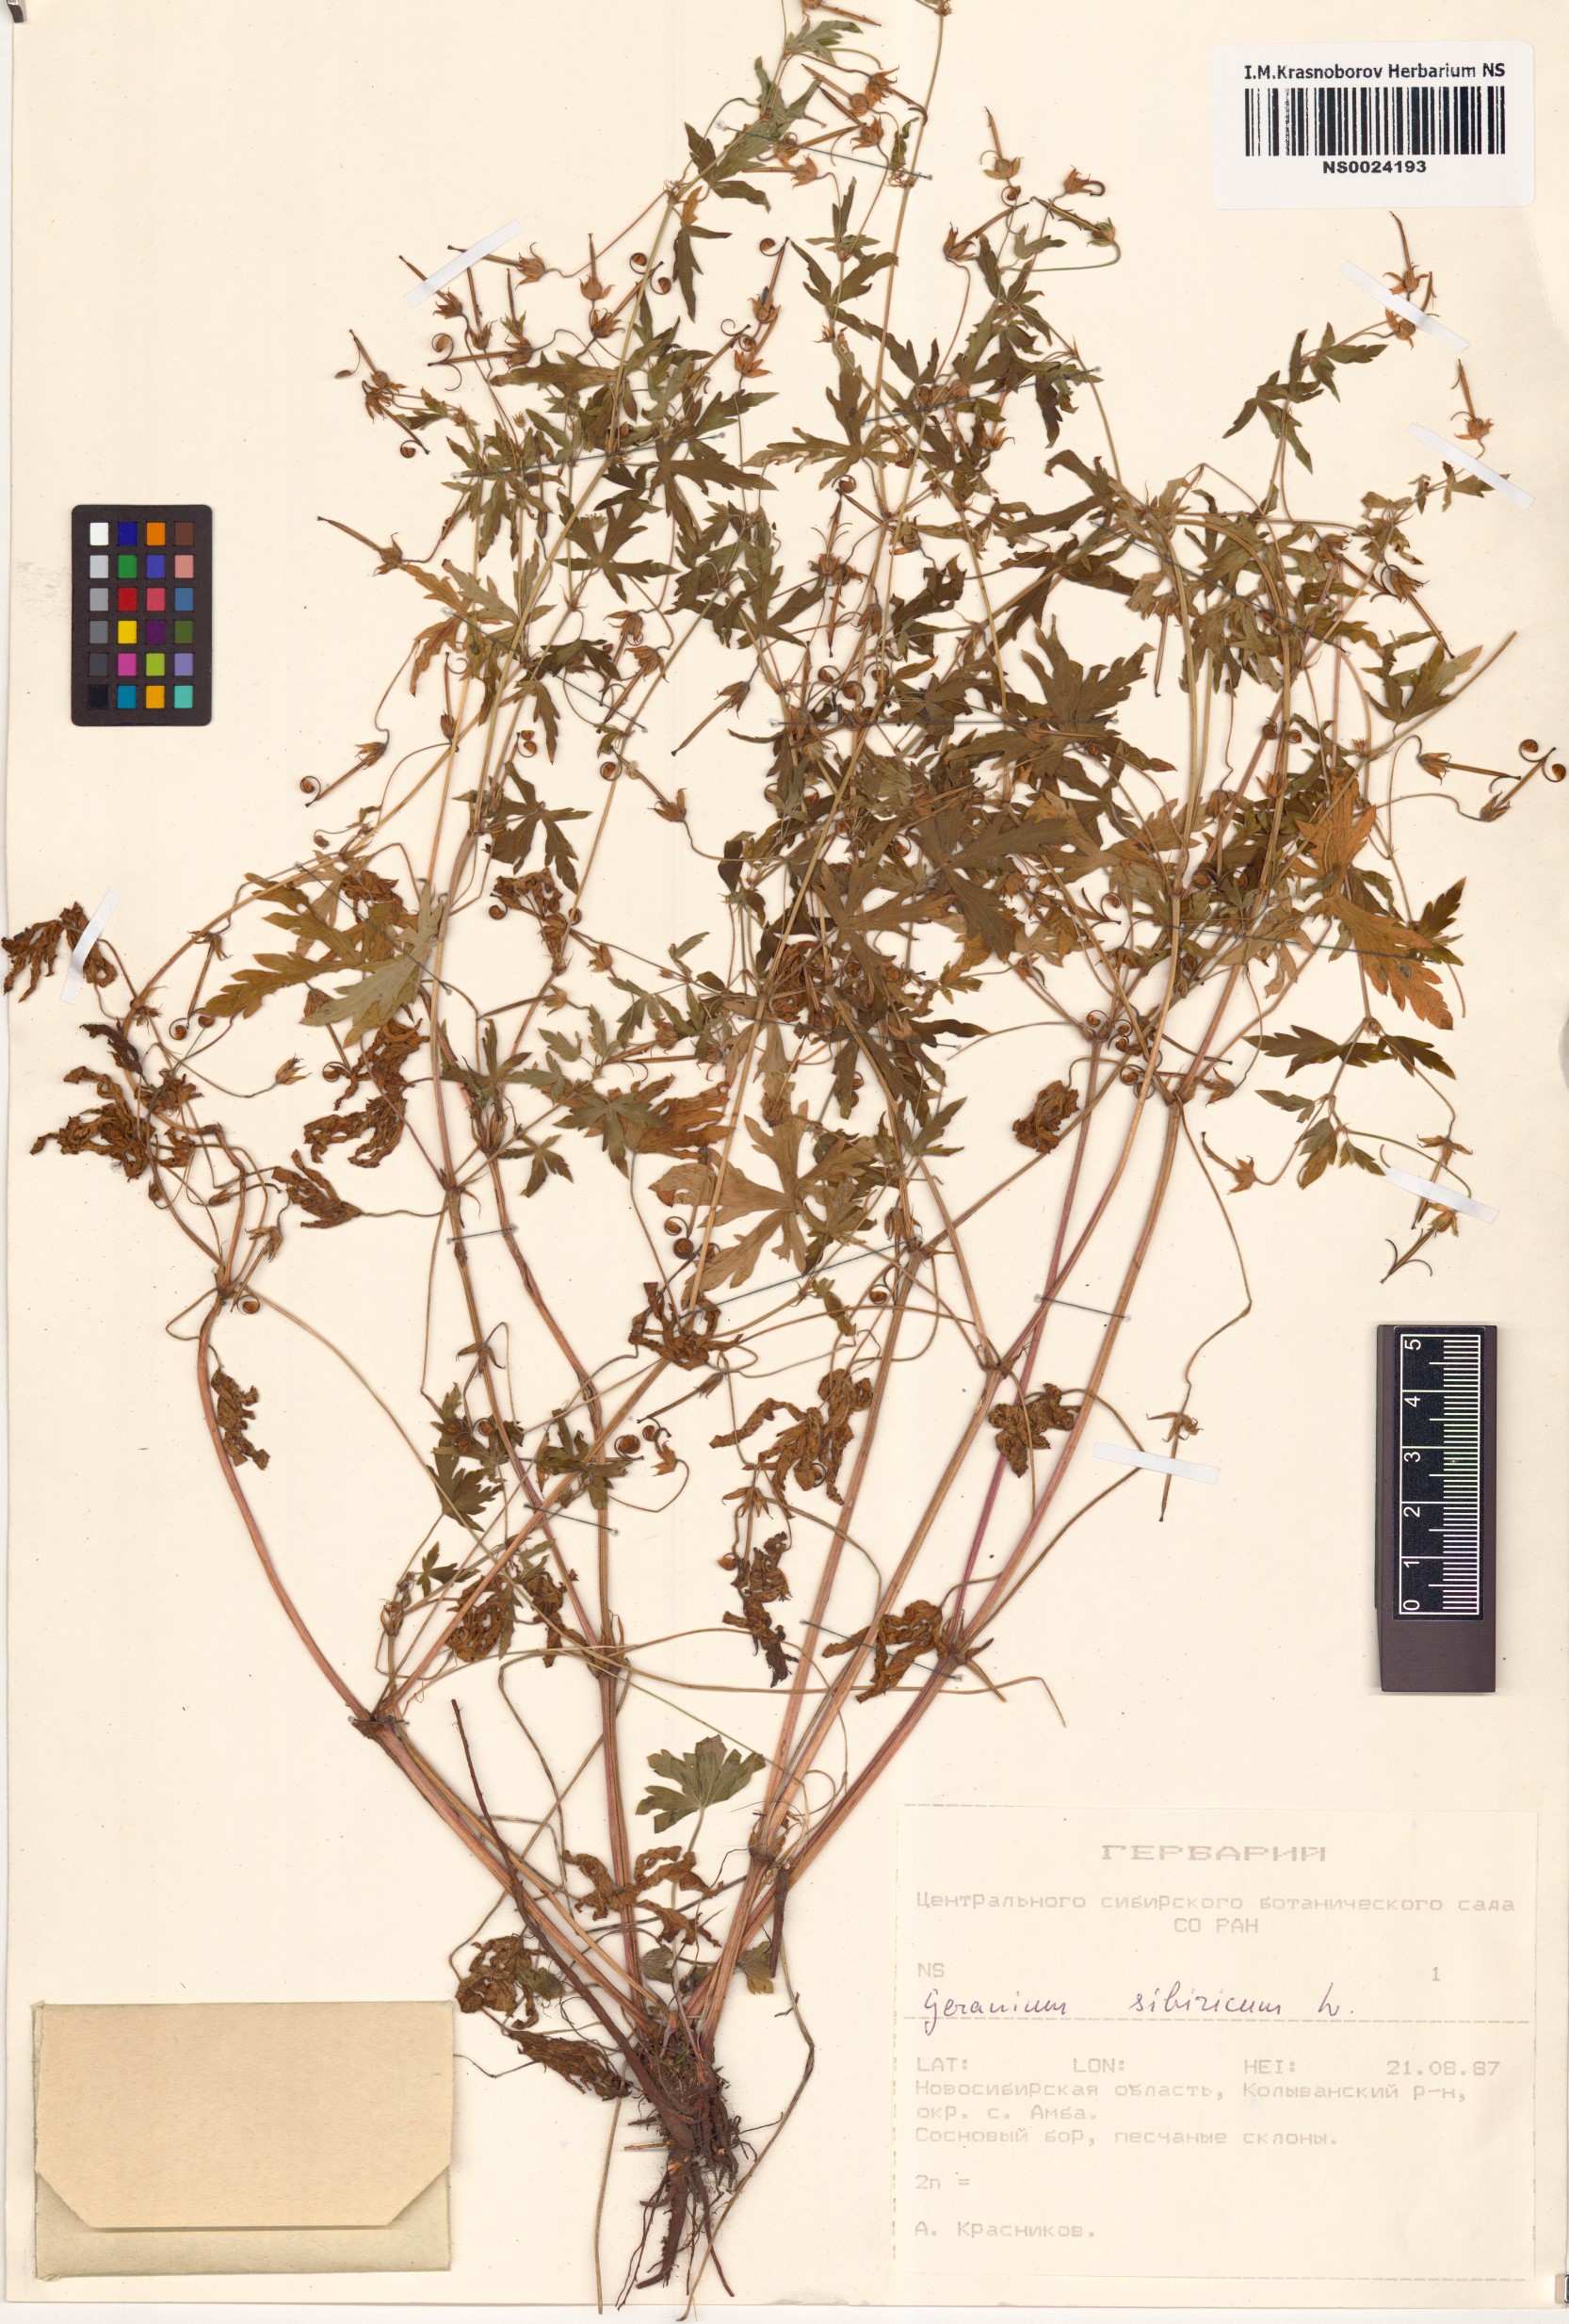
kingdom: Plantae
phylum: Tracheophyta
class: Magnoliopsida
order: Geraniales
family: Geraniaceae
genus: Geranium
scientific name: Geranium sibiricum
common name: Siberian crane's-bill
